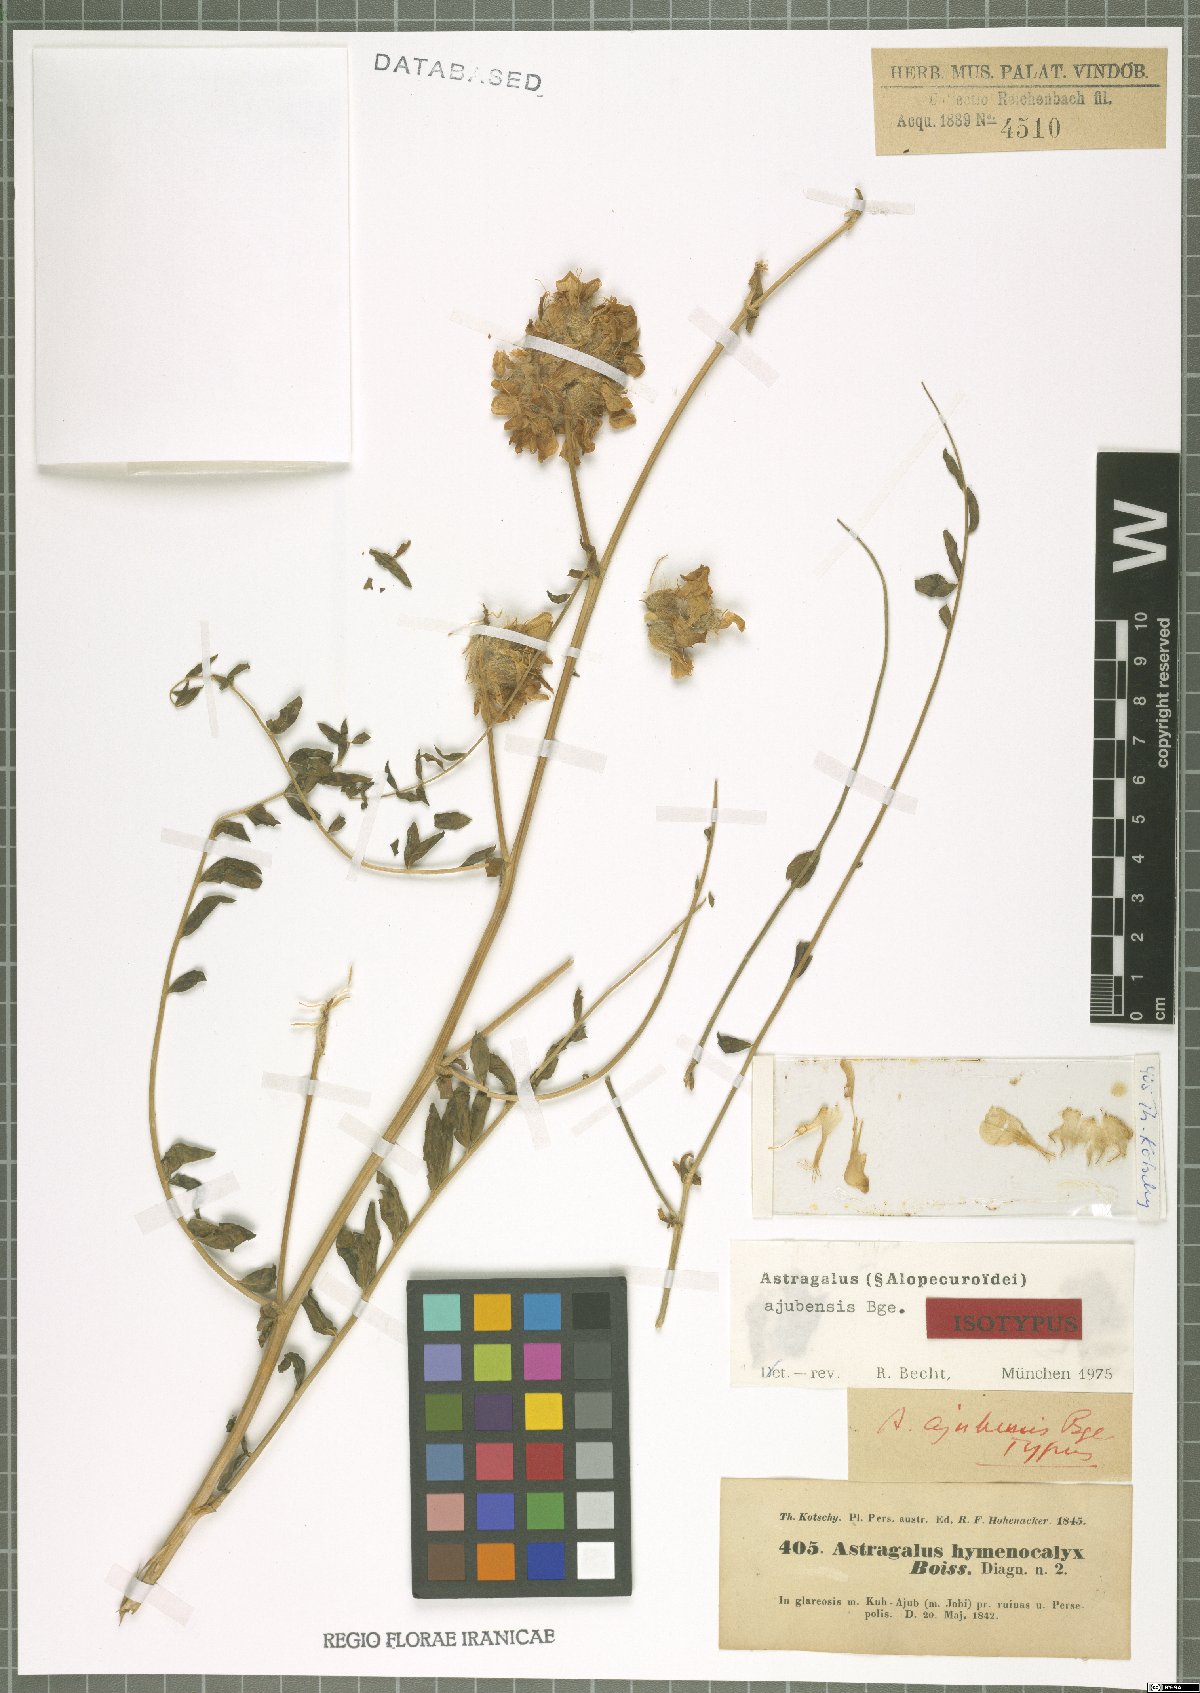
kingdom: Plantae
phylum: Tracheophyta
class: Magnoliopsida
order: Fabales
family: Fabaceae
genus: Astragalus
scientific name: Astragalus macrocephalus
